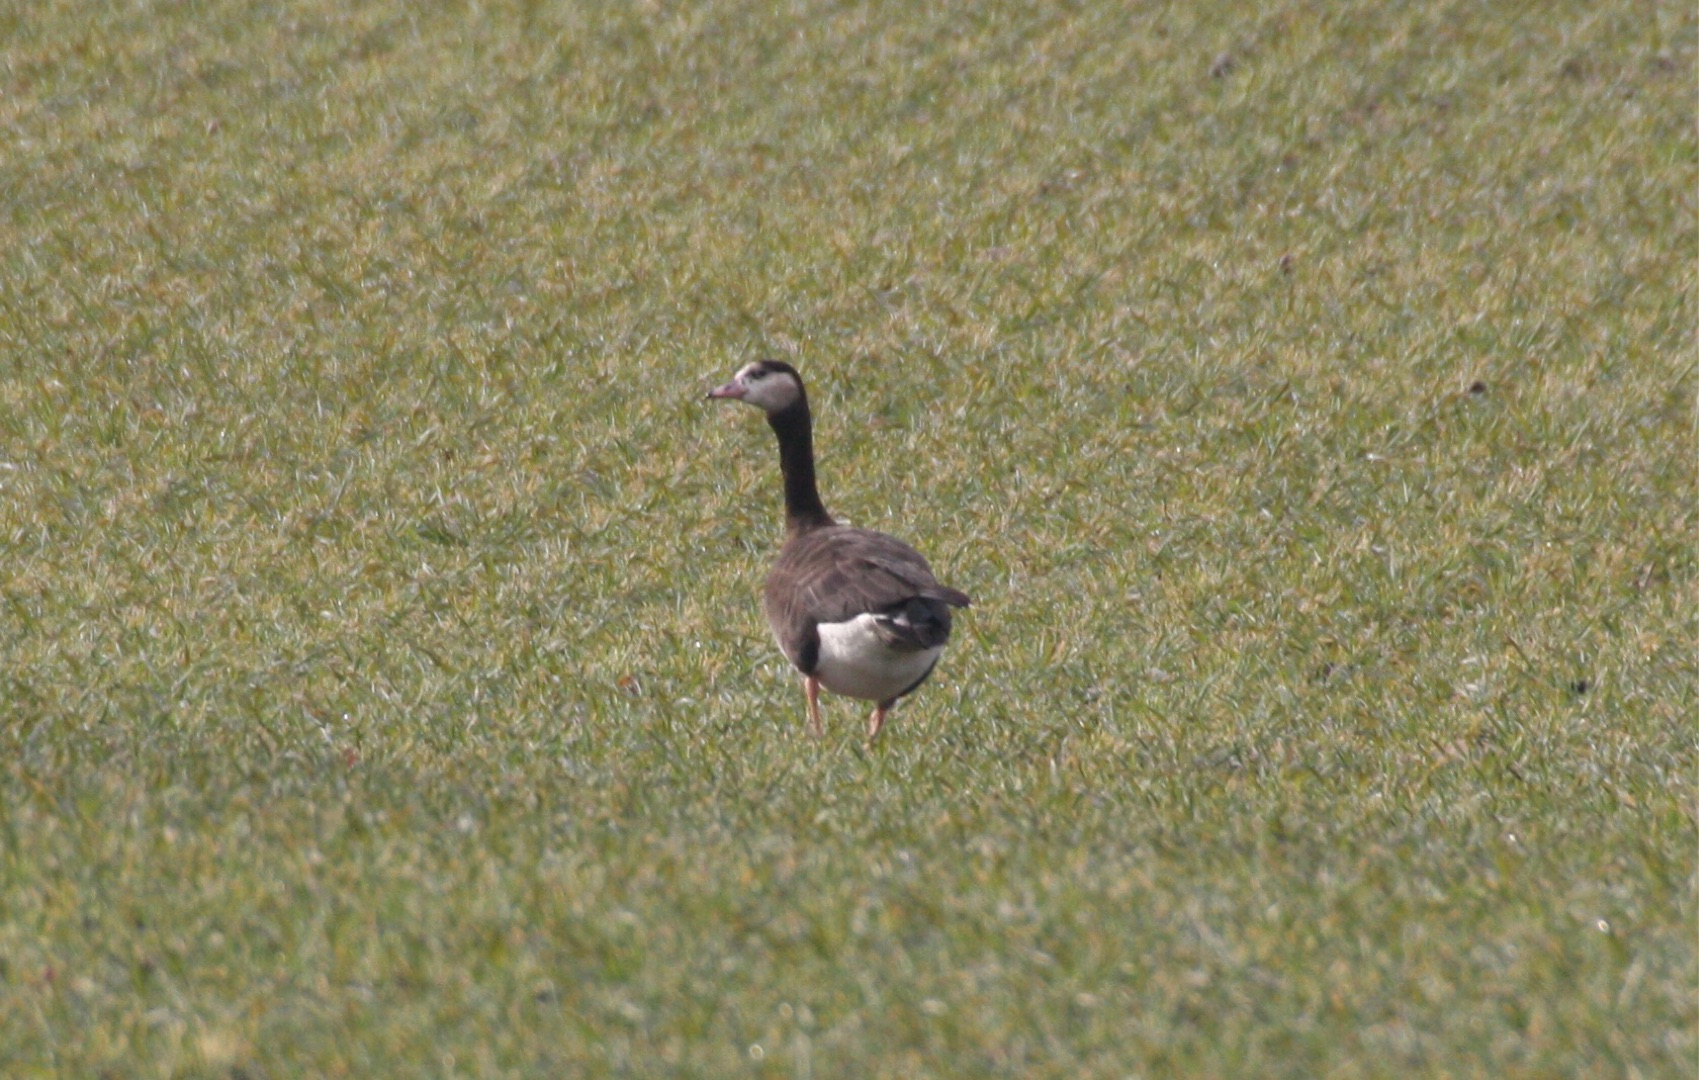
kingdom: Animalia
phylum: Chordata
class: Aves
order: Anseriformes
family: Anatidae
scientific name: Anatidae
